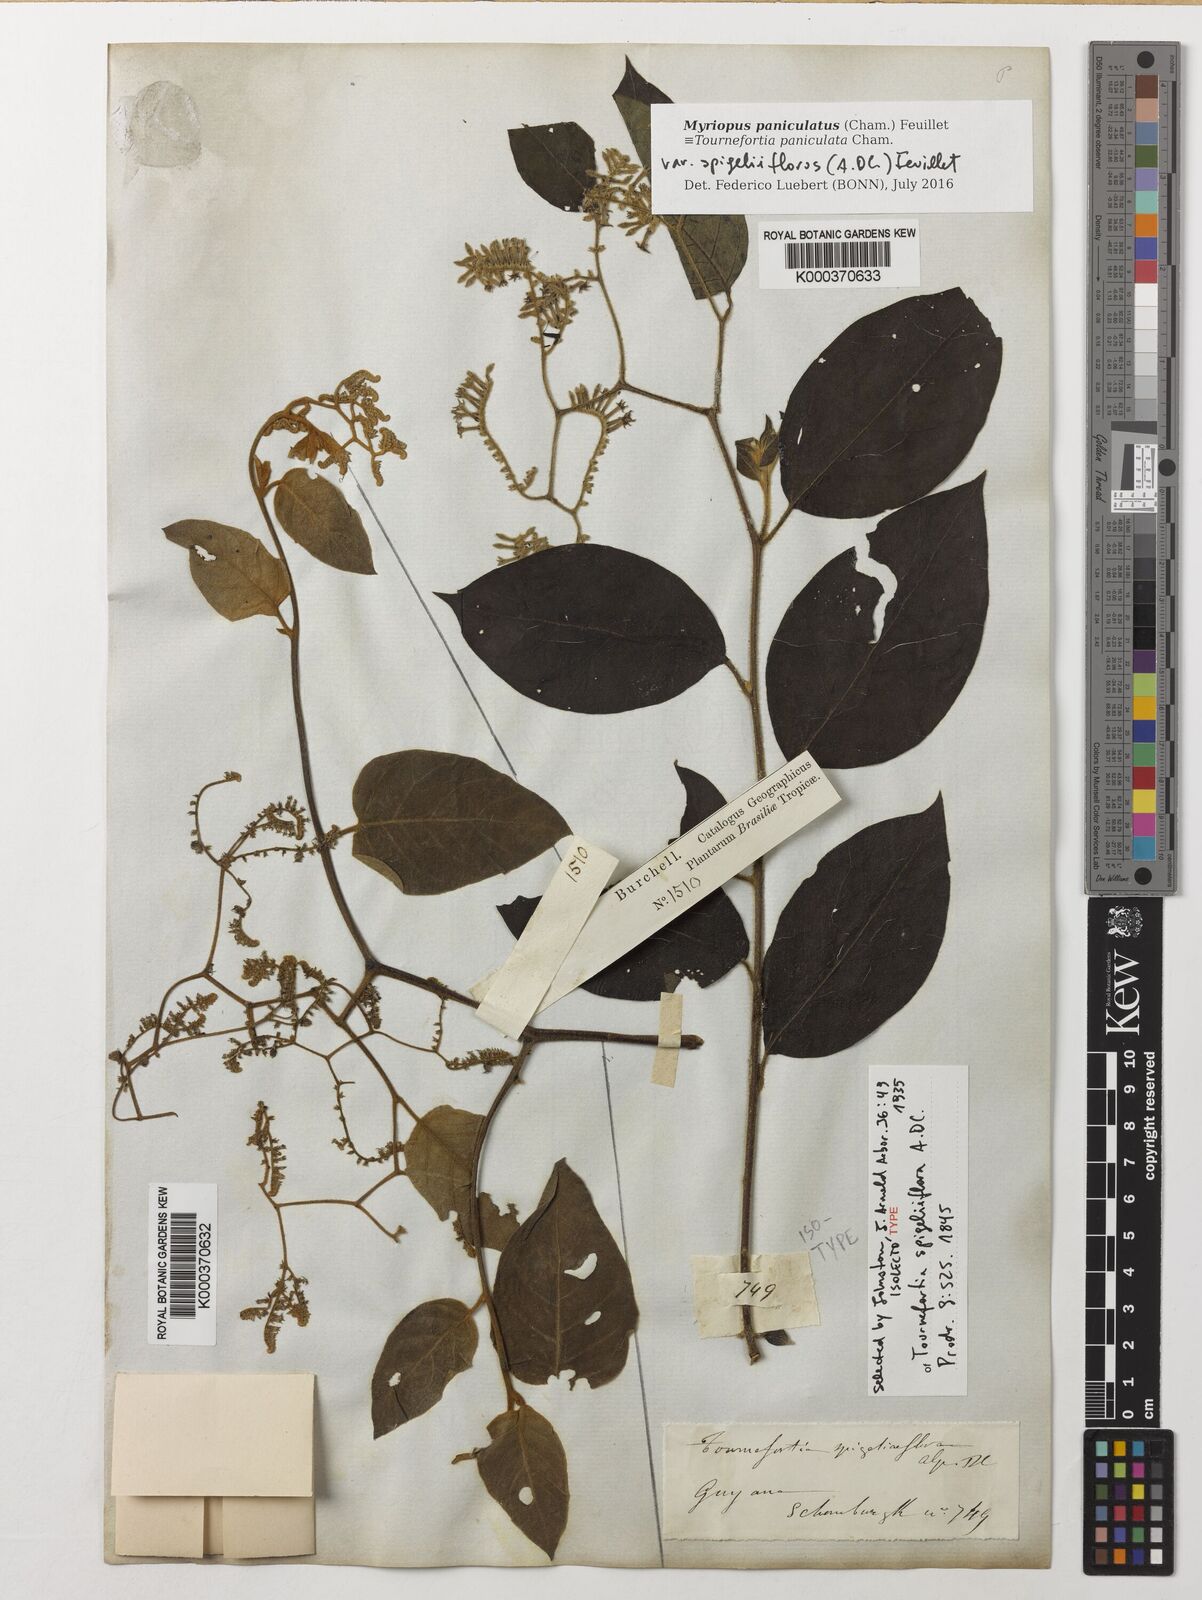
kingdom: Plantae
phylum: Tracheophyta
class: Magnoliopsida
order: Boraginales
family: Heliotropiaceae
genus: Myriopus
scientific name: Myriopus paniculatus
